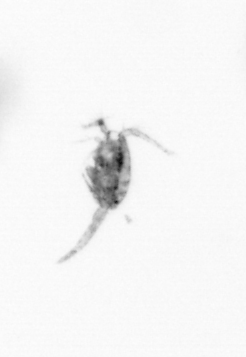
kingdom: Animalia
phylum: Arthropoda
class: Copepoda
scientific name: Copepoda
